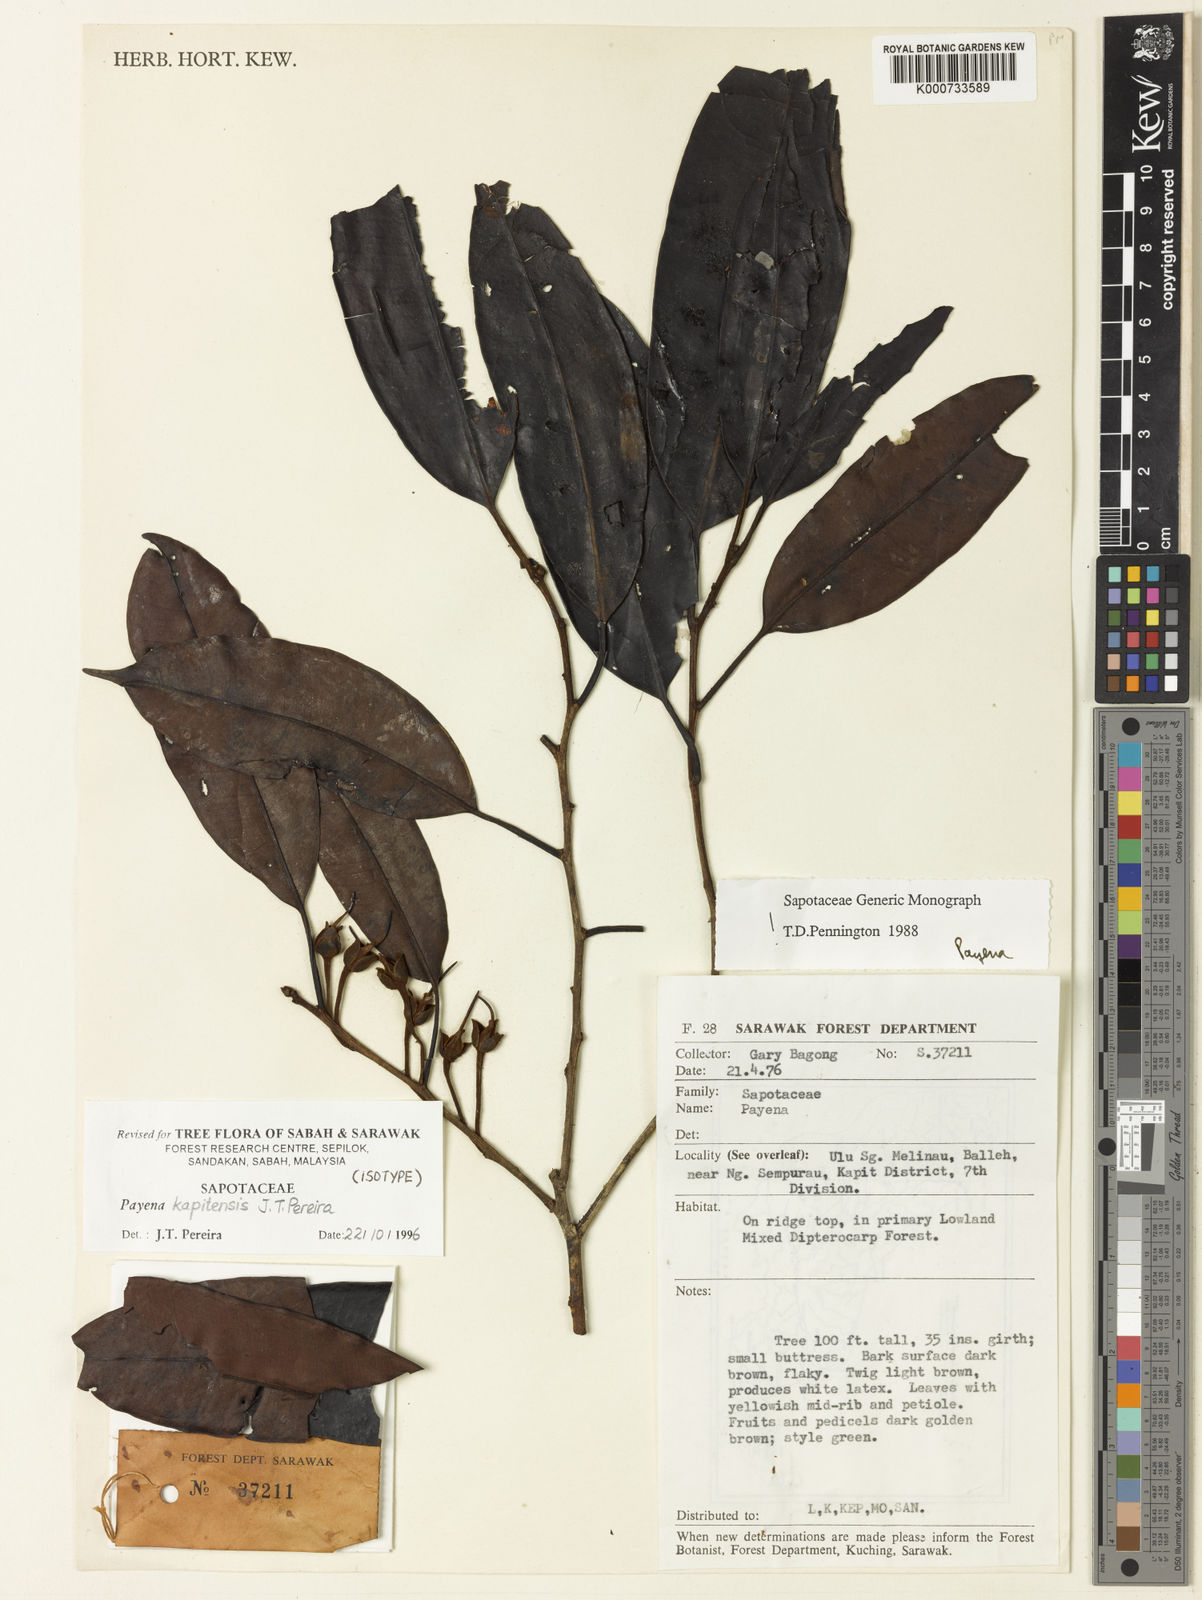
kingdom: Plantae
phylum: Tracheophyta
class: Magnoliopsida
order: Ericales
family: Sapotaceae
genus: Payena
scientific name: Payena kapitensis
